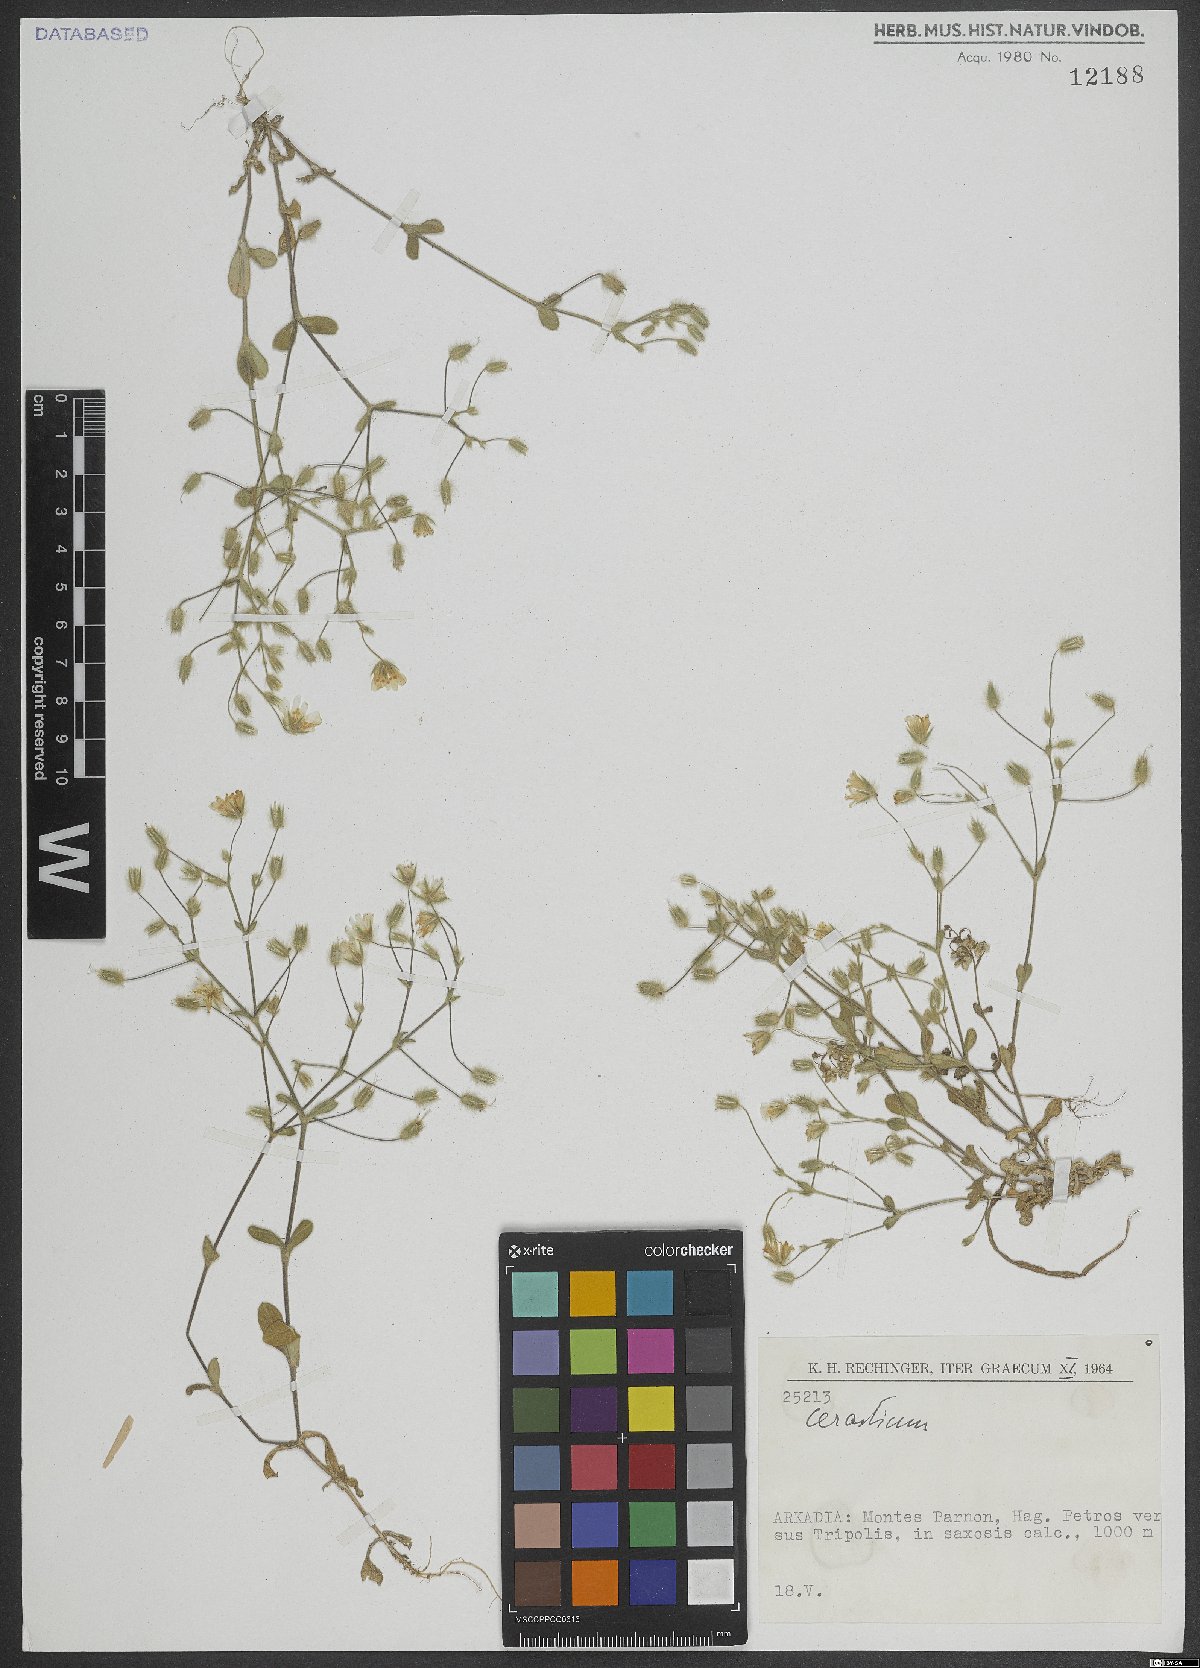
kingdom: Plantae
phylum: Tracheophyta
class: Magnoliopsida
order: Caryophyllales
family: Caryophyllaceae
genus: Cerastium
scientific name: Cerastium
